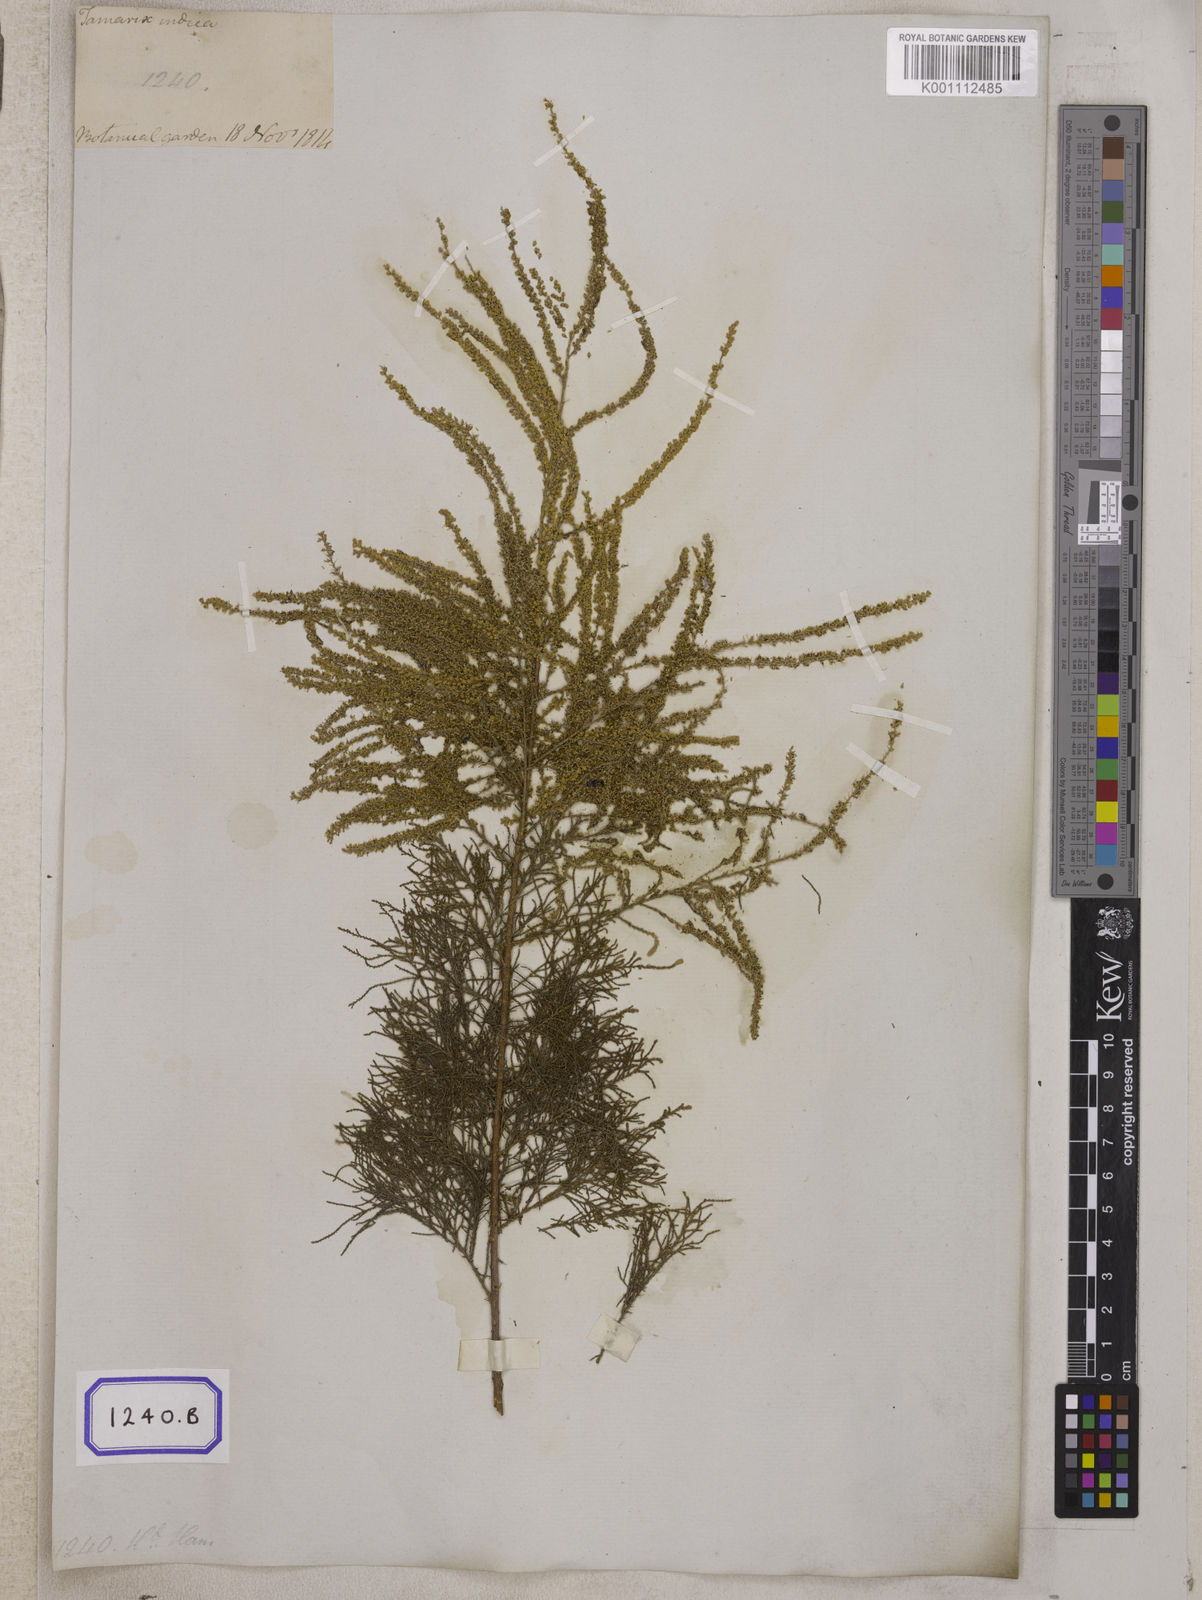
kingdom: Plantae
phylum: Tracheophyta
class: Magnoliopsida
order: Caryophyllales
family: Tamaricaceae
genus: Tamarix
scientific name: Tamarix indica
